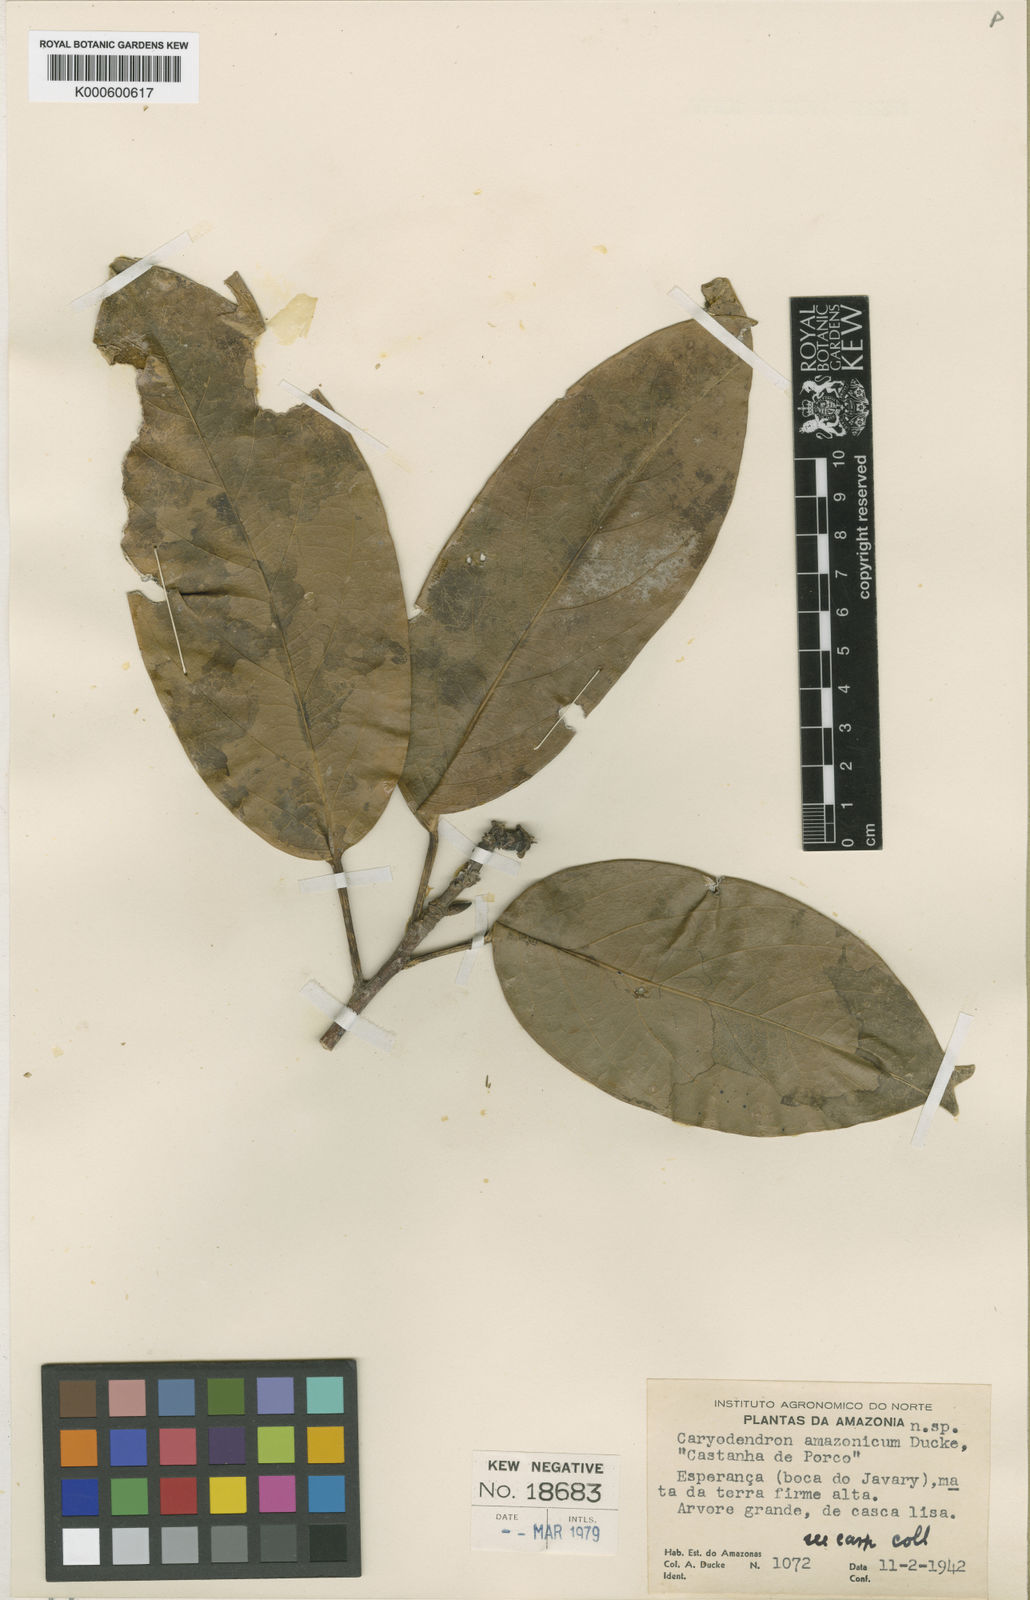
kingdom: Plantae
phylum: Tracheophyta
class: Magnoliopsida
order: Malpighiales
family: Euphorbiaceae
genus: Caryodendron
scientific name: Caryodendron amazonicum
